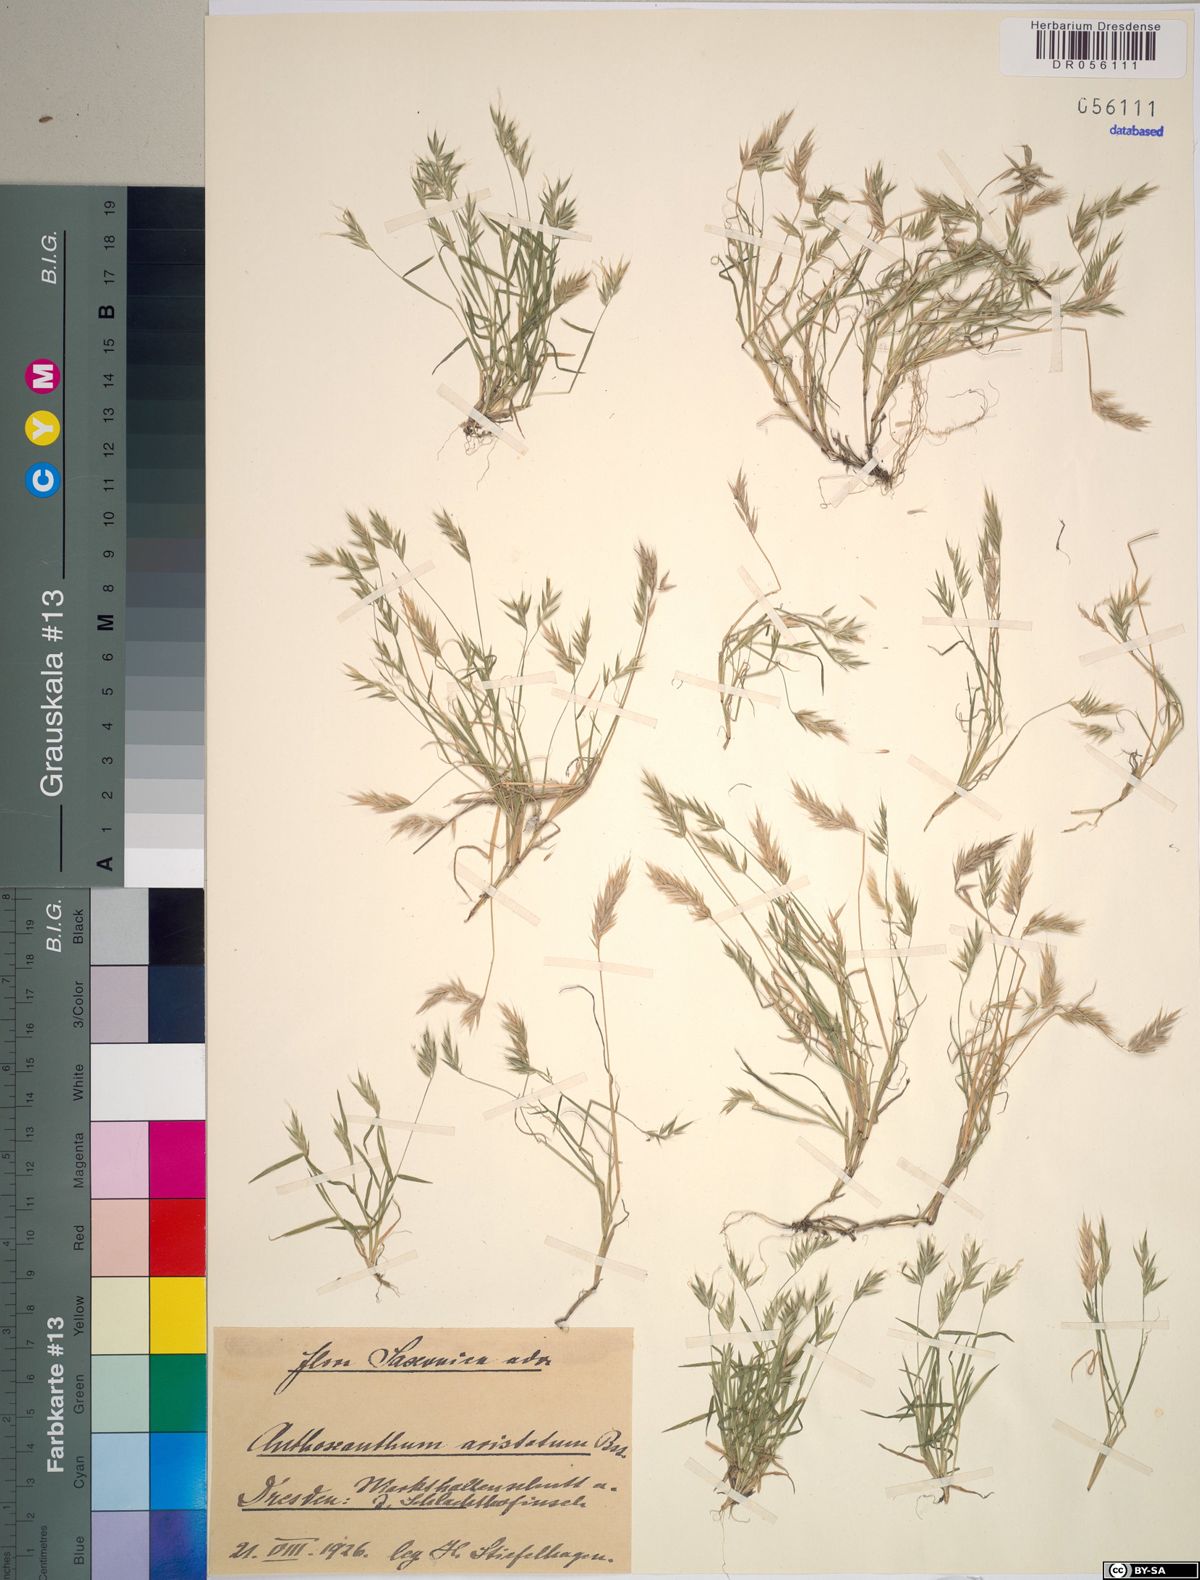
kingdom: Plantae
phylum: Tracheophyta
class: Liliopsida
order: Poales
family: Poaceae
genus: Anthoxanthum
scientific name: Anthoxanthum aristatum
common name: Annual vernal-grass
